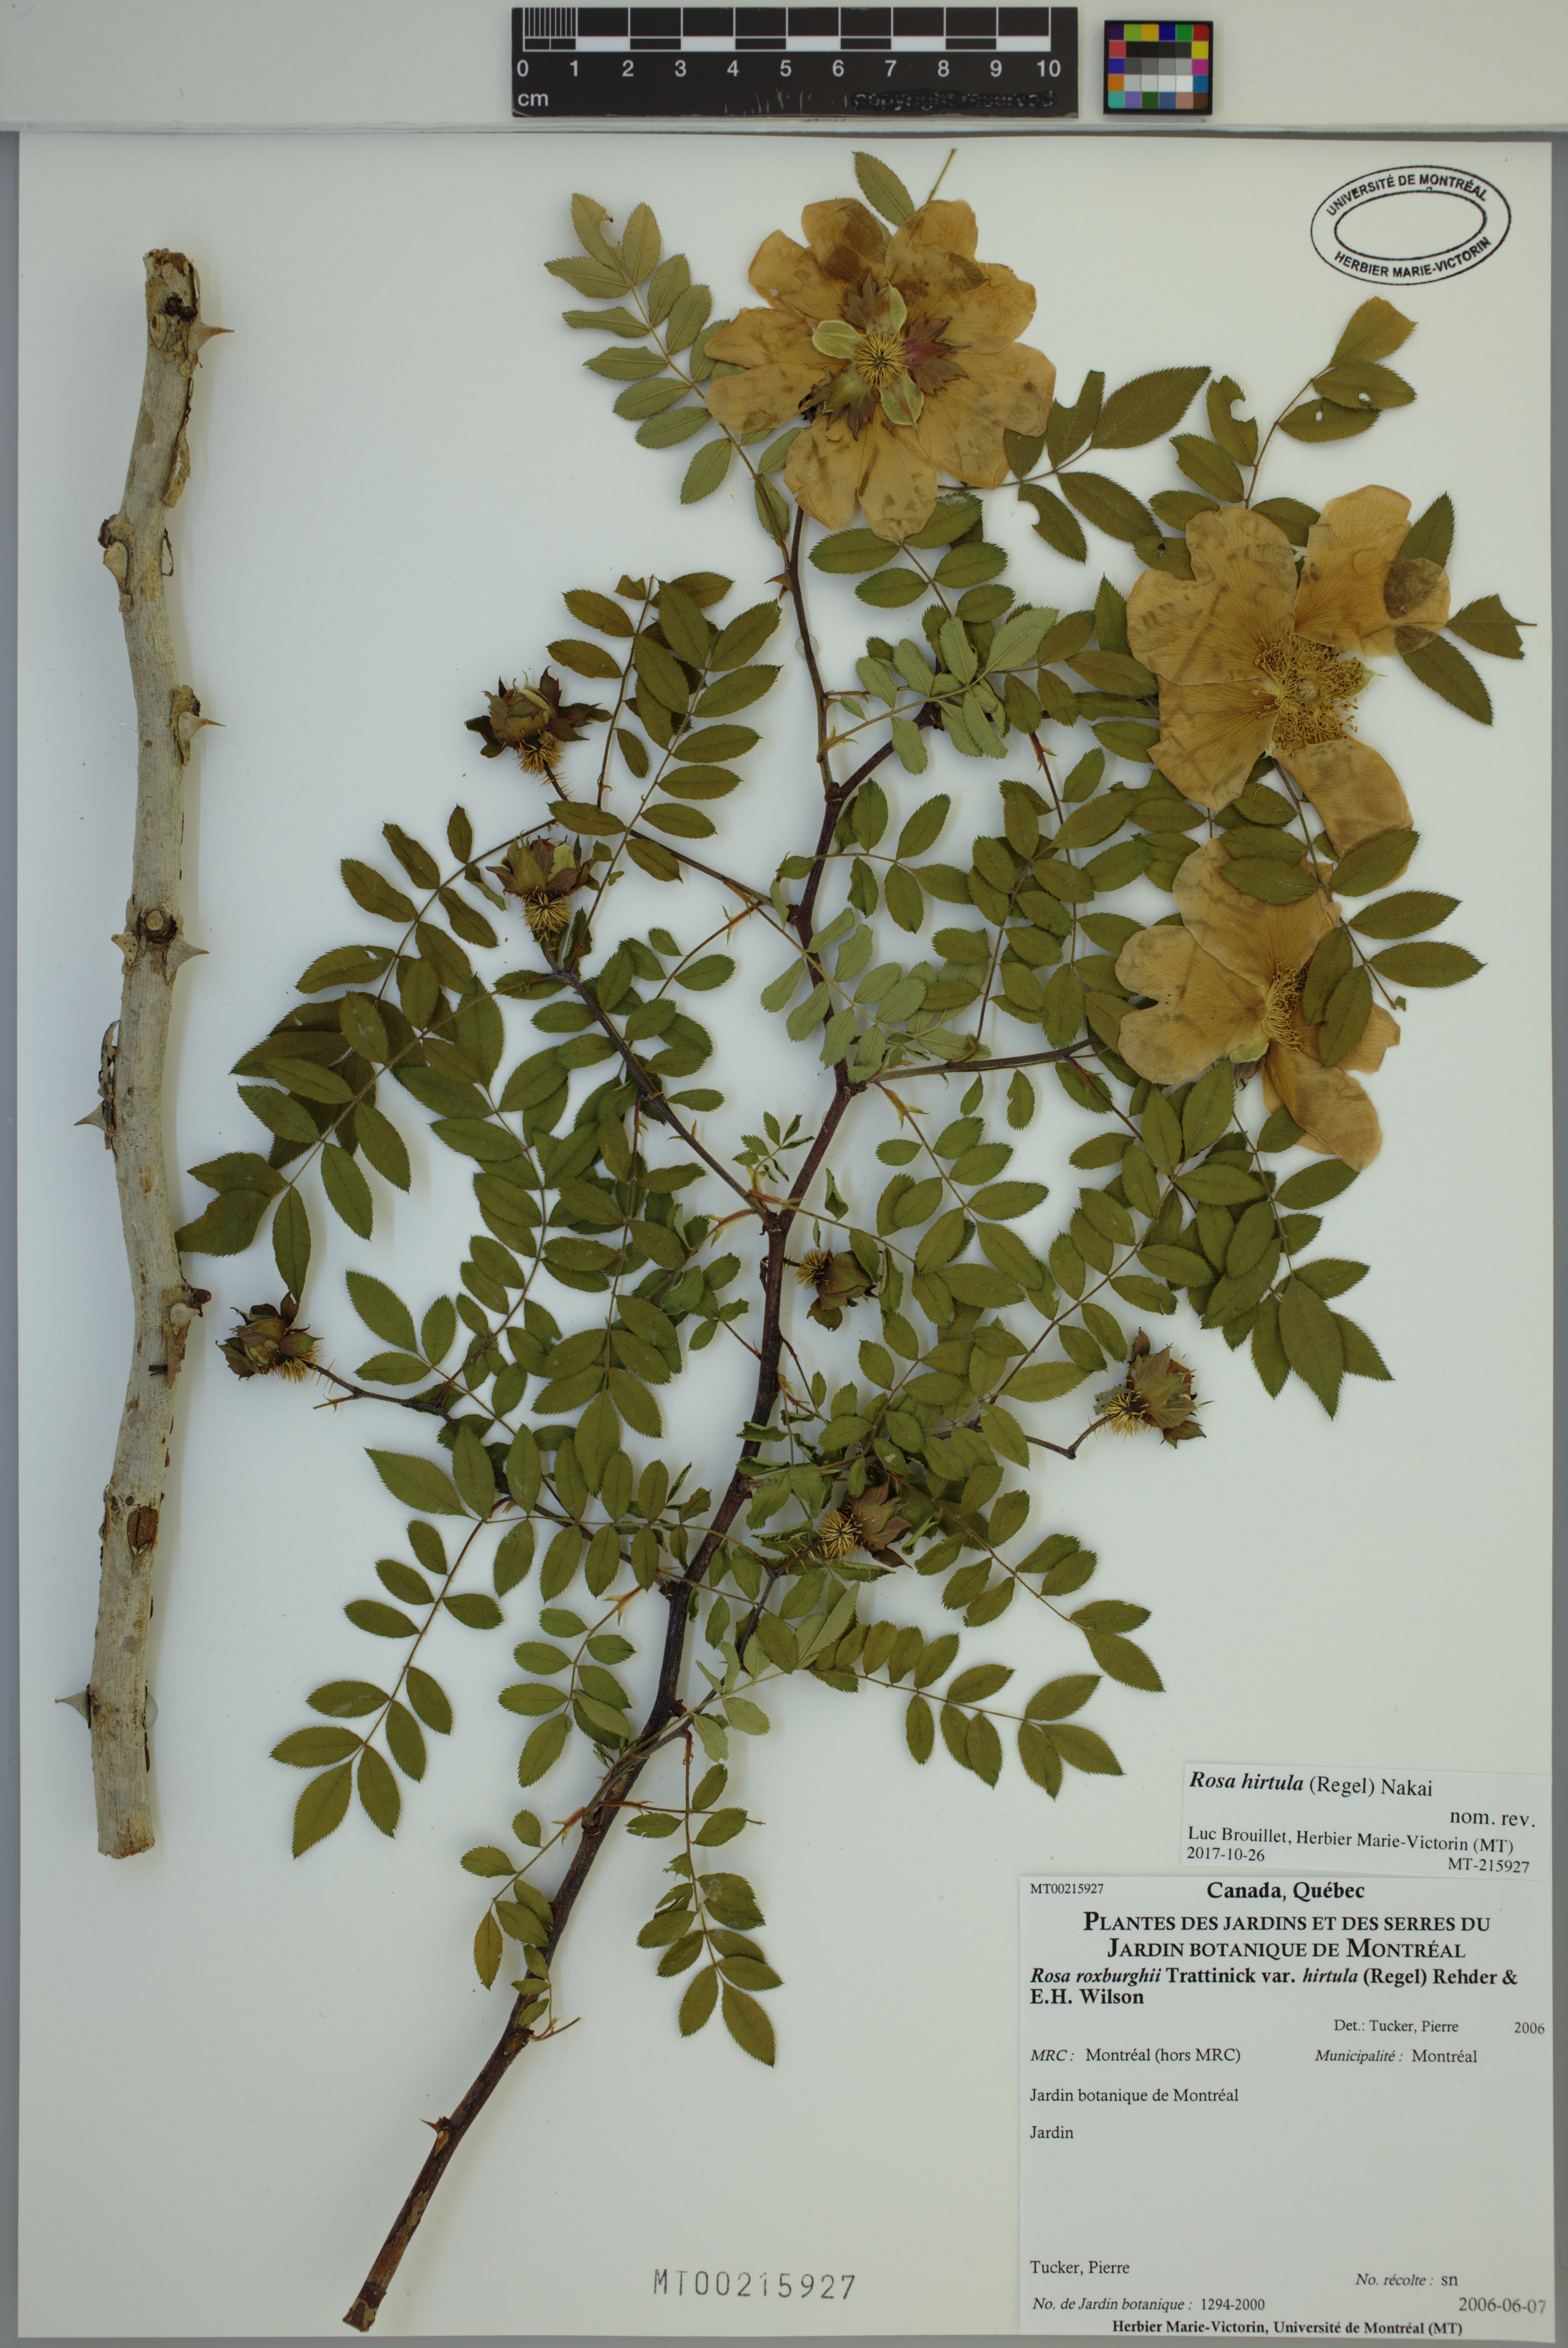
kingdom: Plantae
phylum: Tracheophyta
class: Magnoliopsida
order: Rosales
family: Rosaceae
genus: Rosa
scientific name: Rosa hirtula
